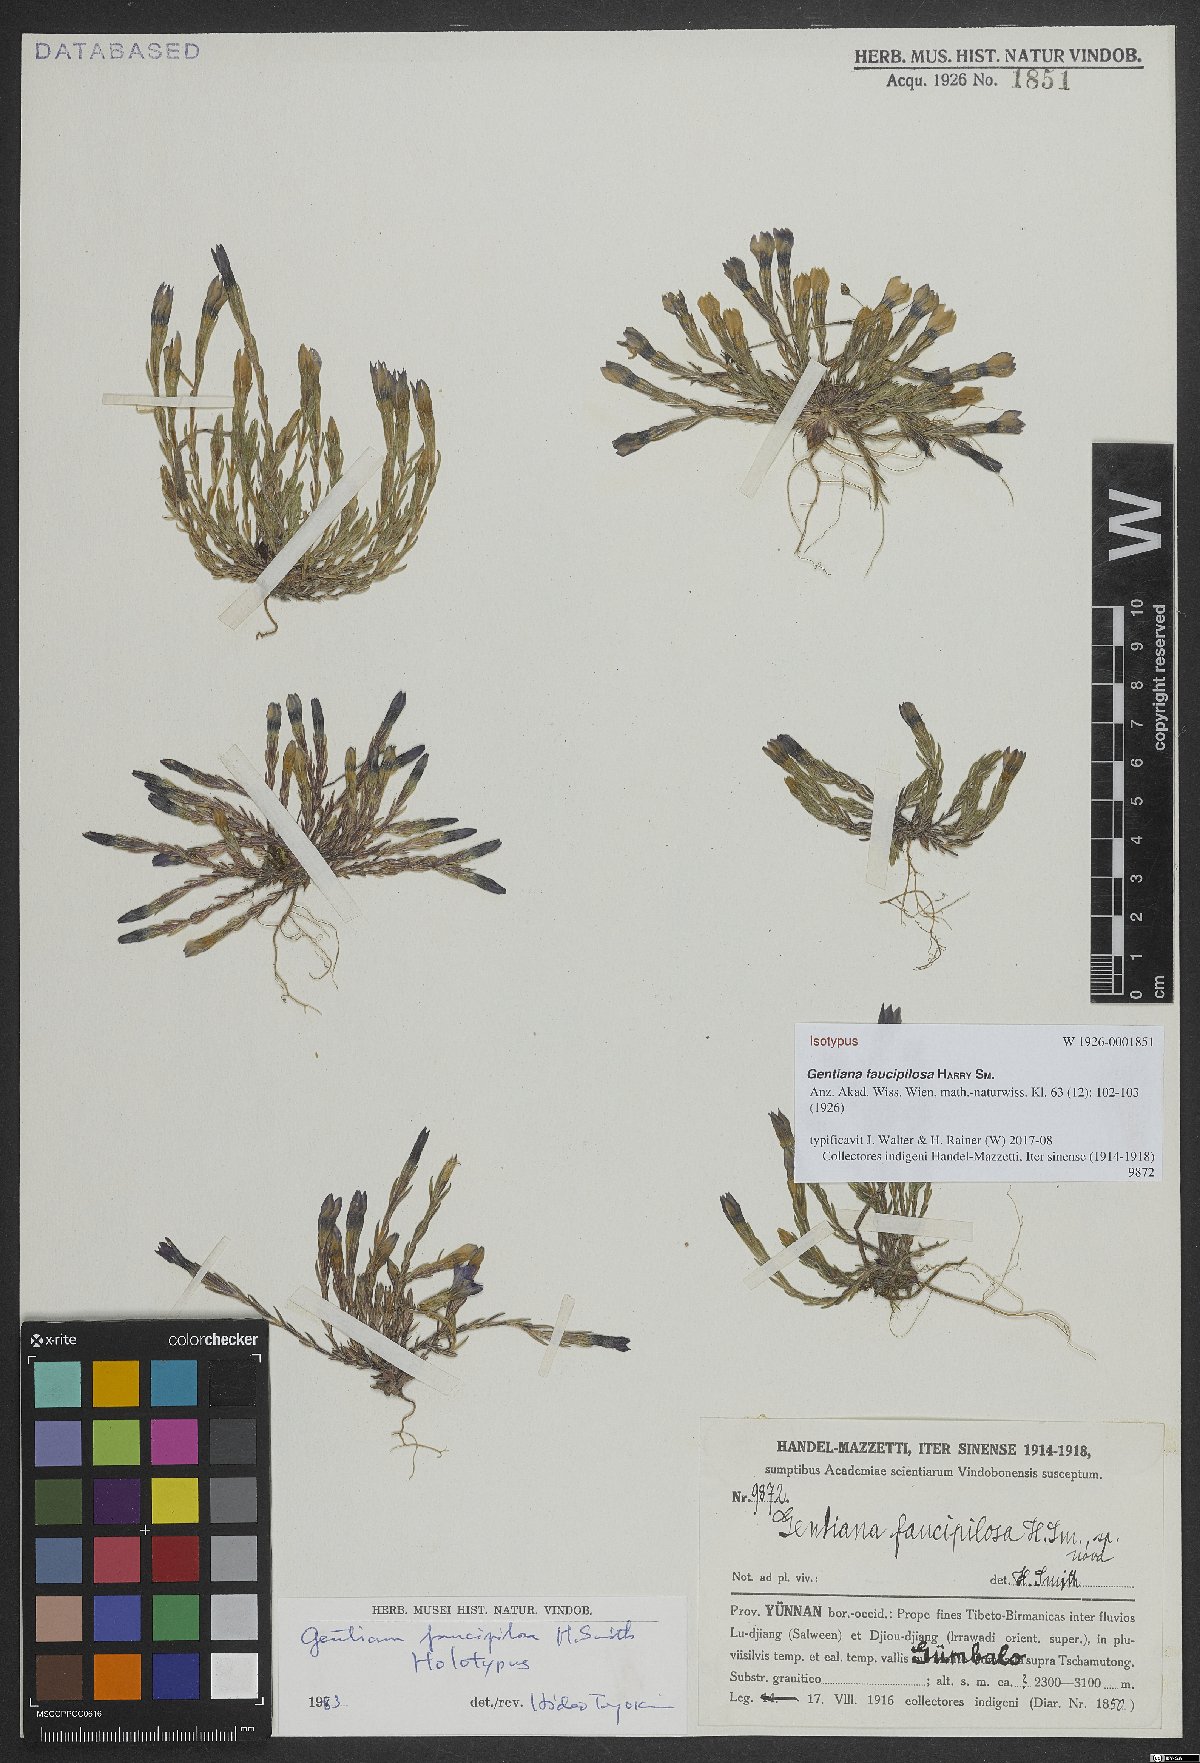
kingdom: Plantae
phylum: Tracheophyta
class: Magnoliopsida
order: Gentianales
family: Gentianaceae
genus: Gentiana
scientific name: Gentiana faucipilosa
